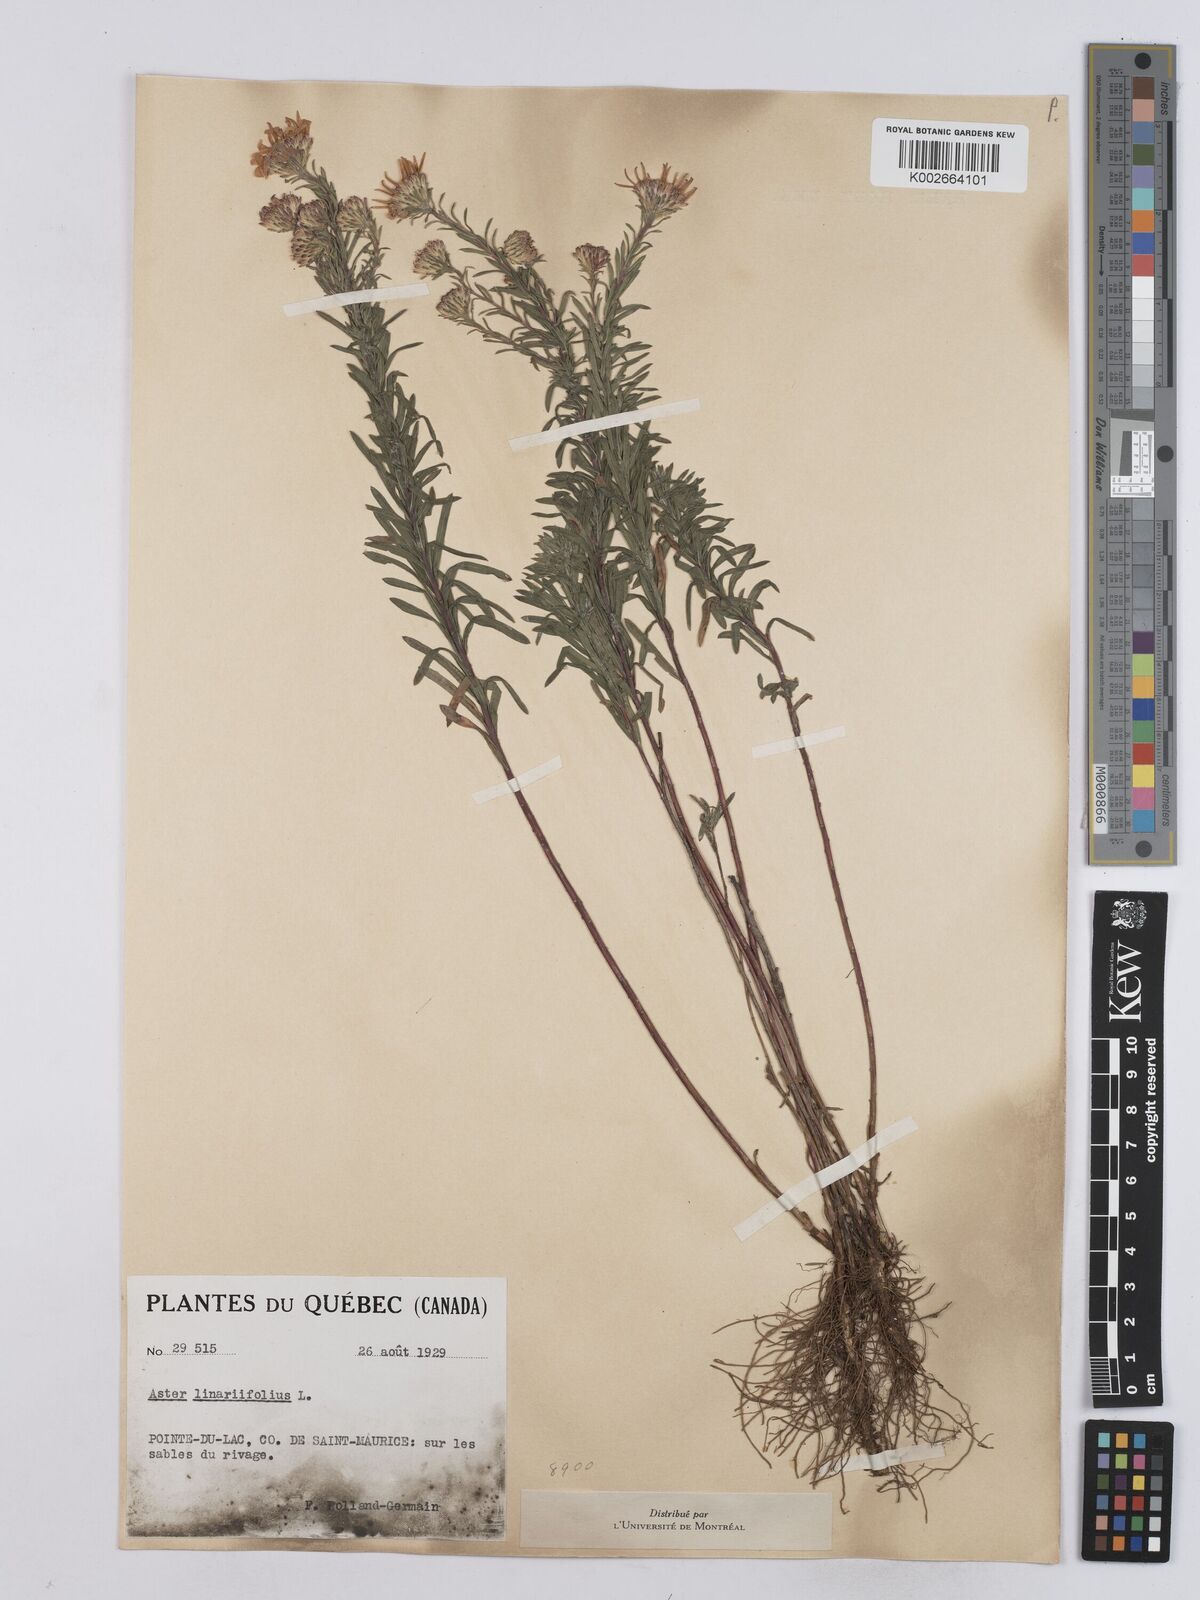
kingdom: Plantae
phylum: Tracheophyta
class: Magnoliopsida
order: Asterales
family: Asteraceae
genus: Ionactis
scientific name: Ionactis linariifolia
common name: Flax-leaf aster
